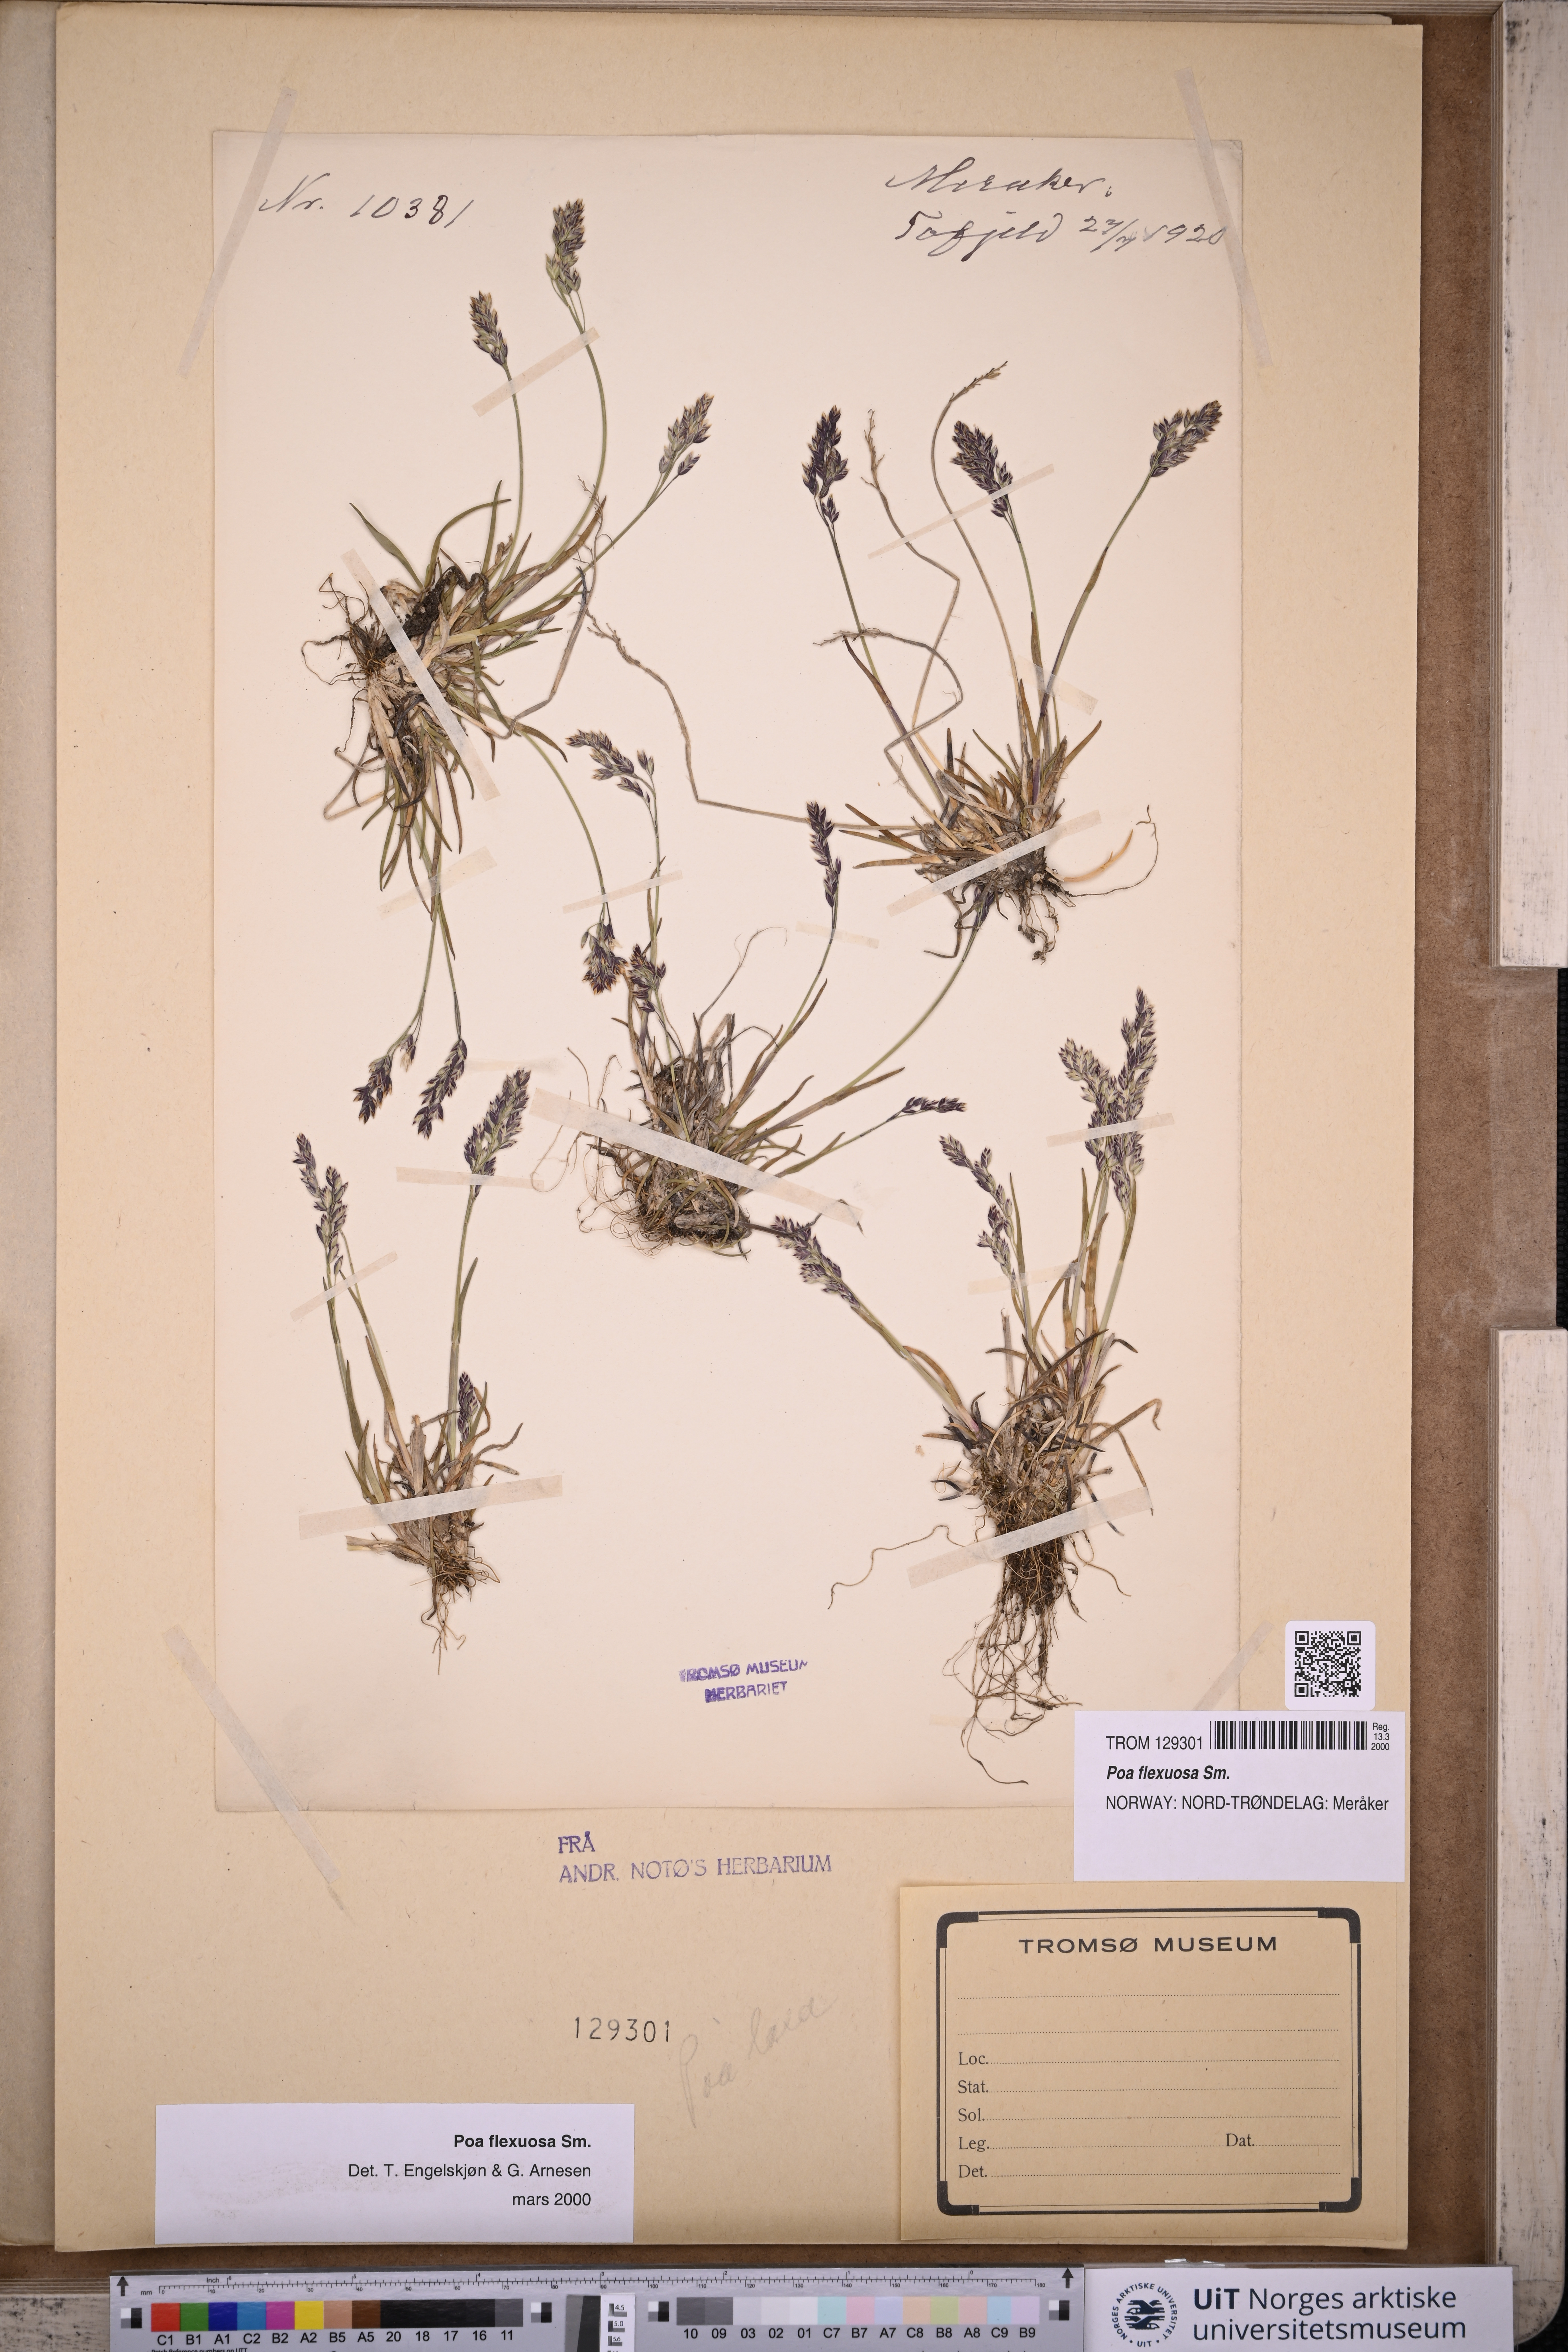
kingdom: Plantae
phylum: Tracheophyta
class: Liliopsida
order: Poales
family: Poaceae
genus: Poa
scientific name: Poa flexuosa
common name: Wavy meadow-grass
